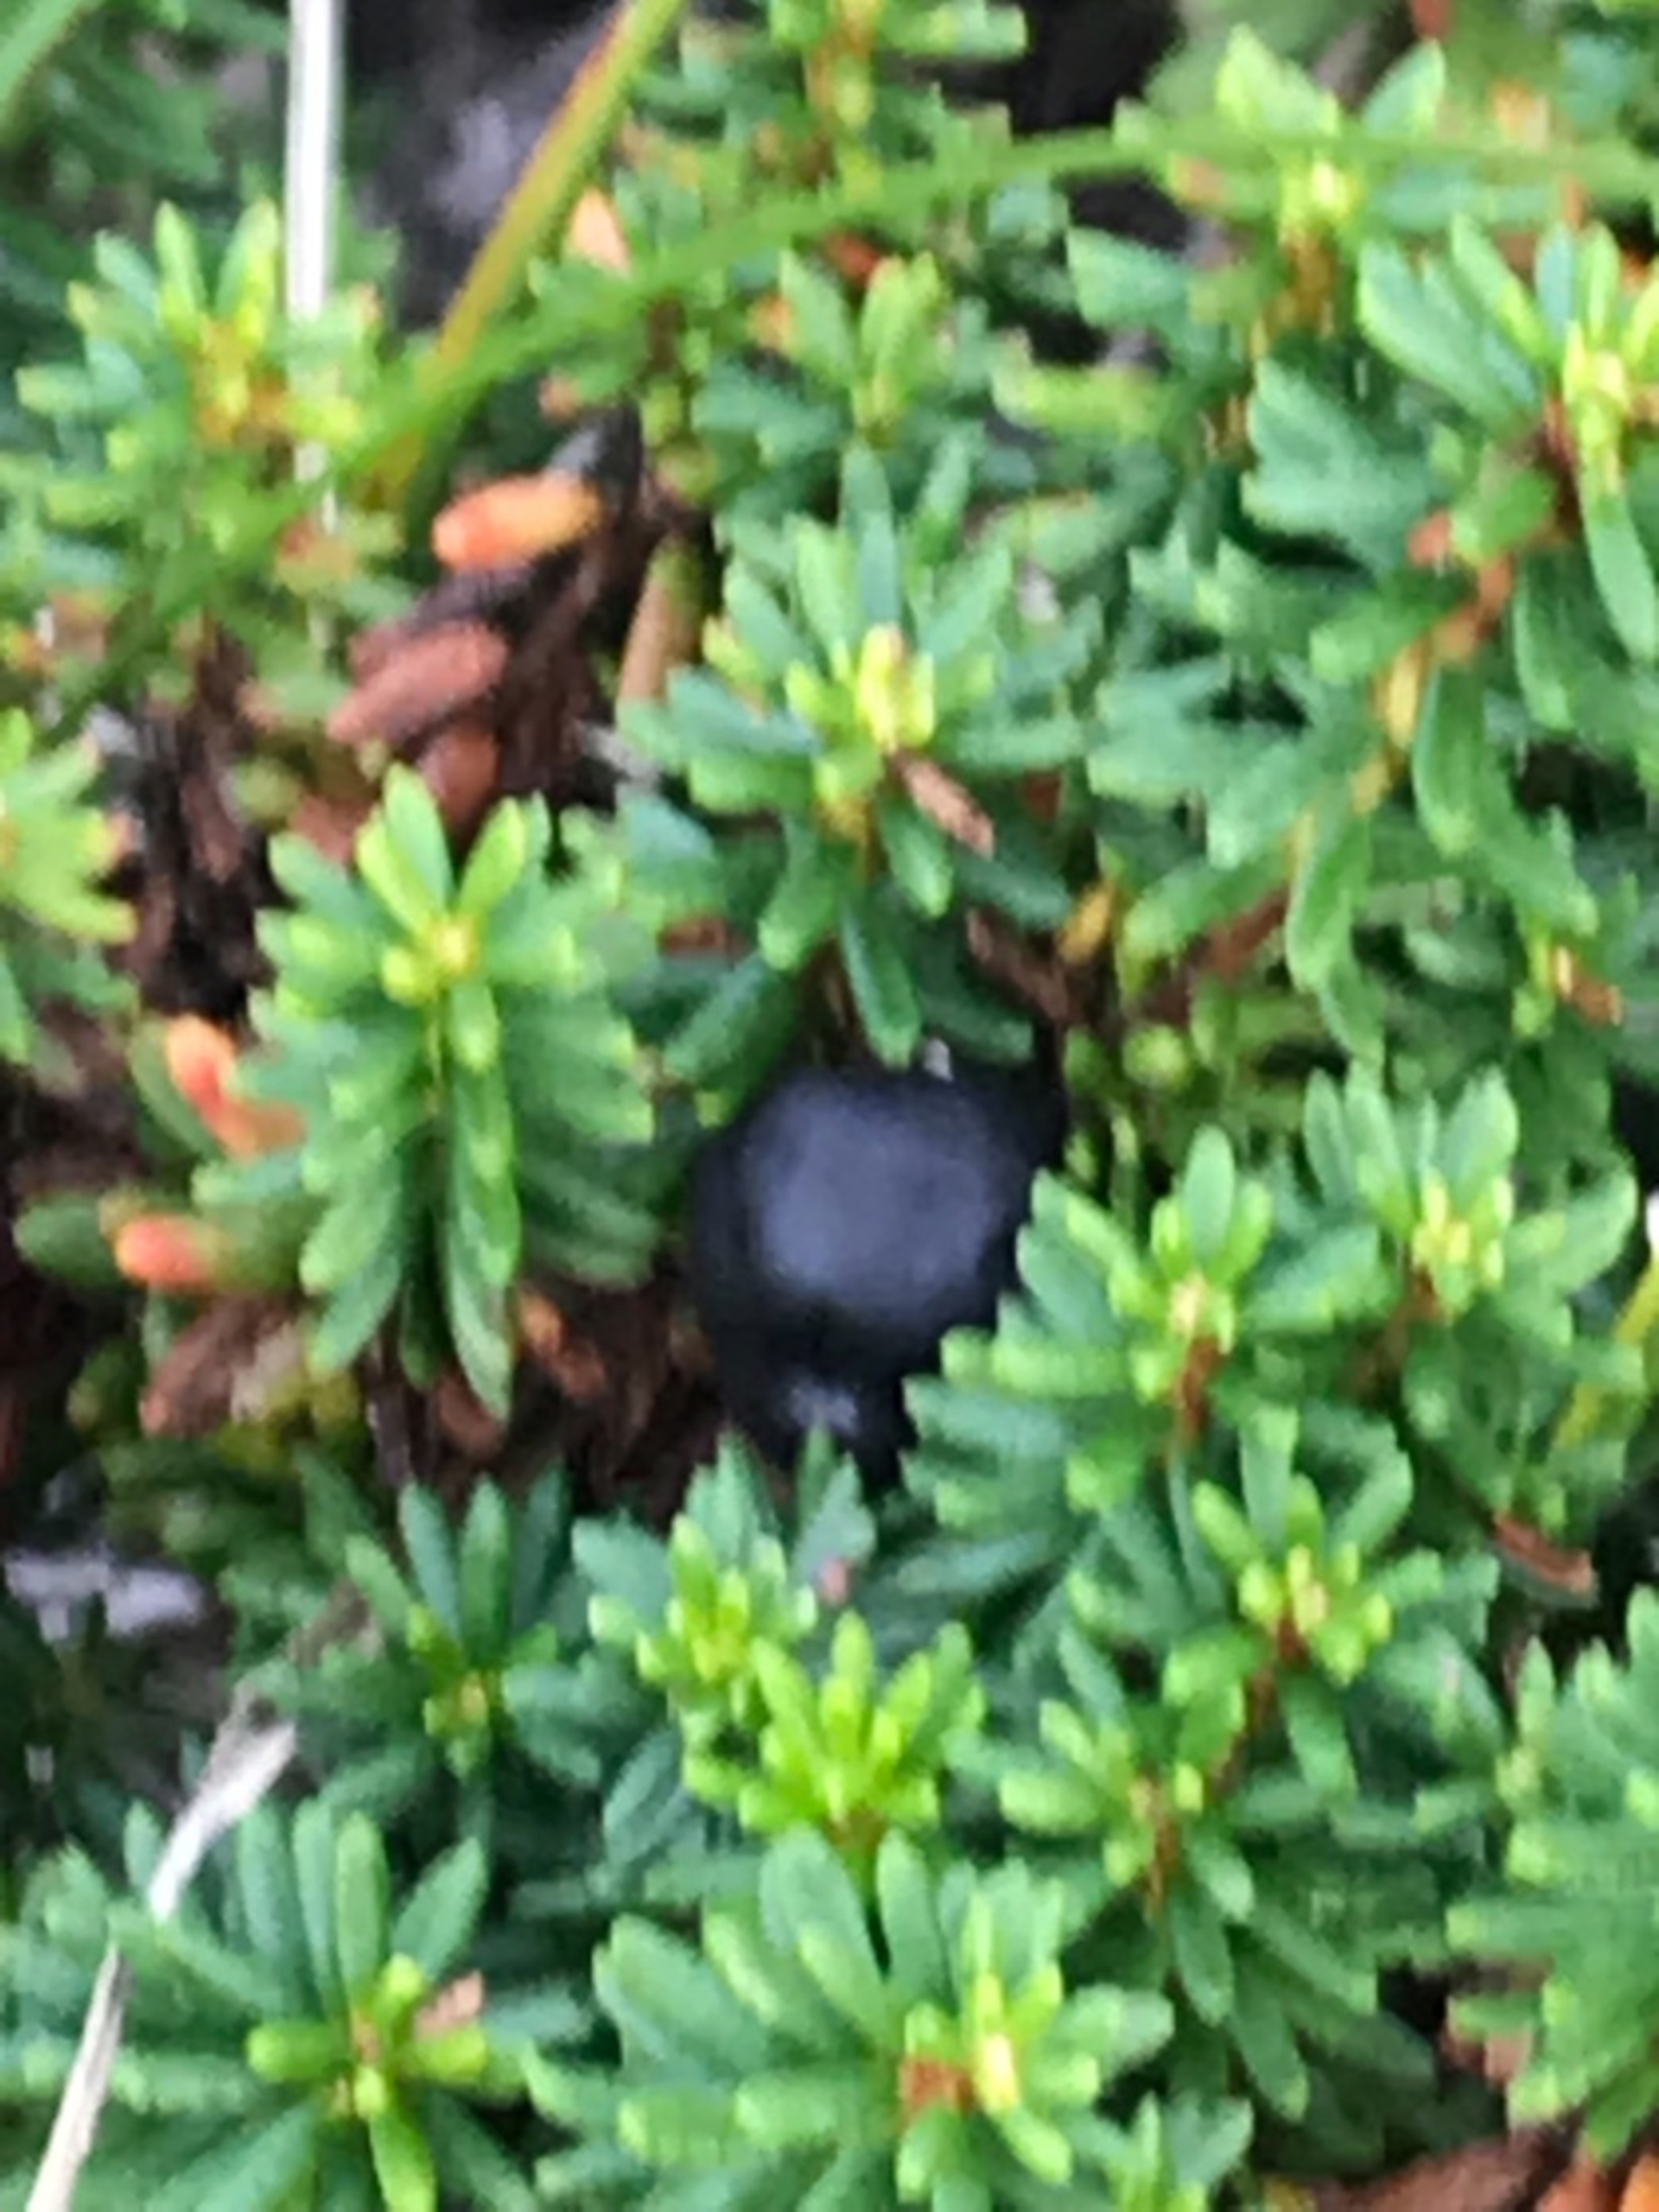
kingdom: Plantae
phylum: Tracheophyta
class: Magnoliopsida
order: Ericales
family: Ericaceae
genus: Empetrum
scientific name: Empetrum nigrum
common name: Revling
